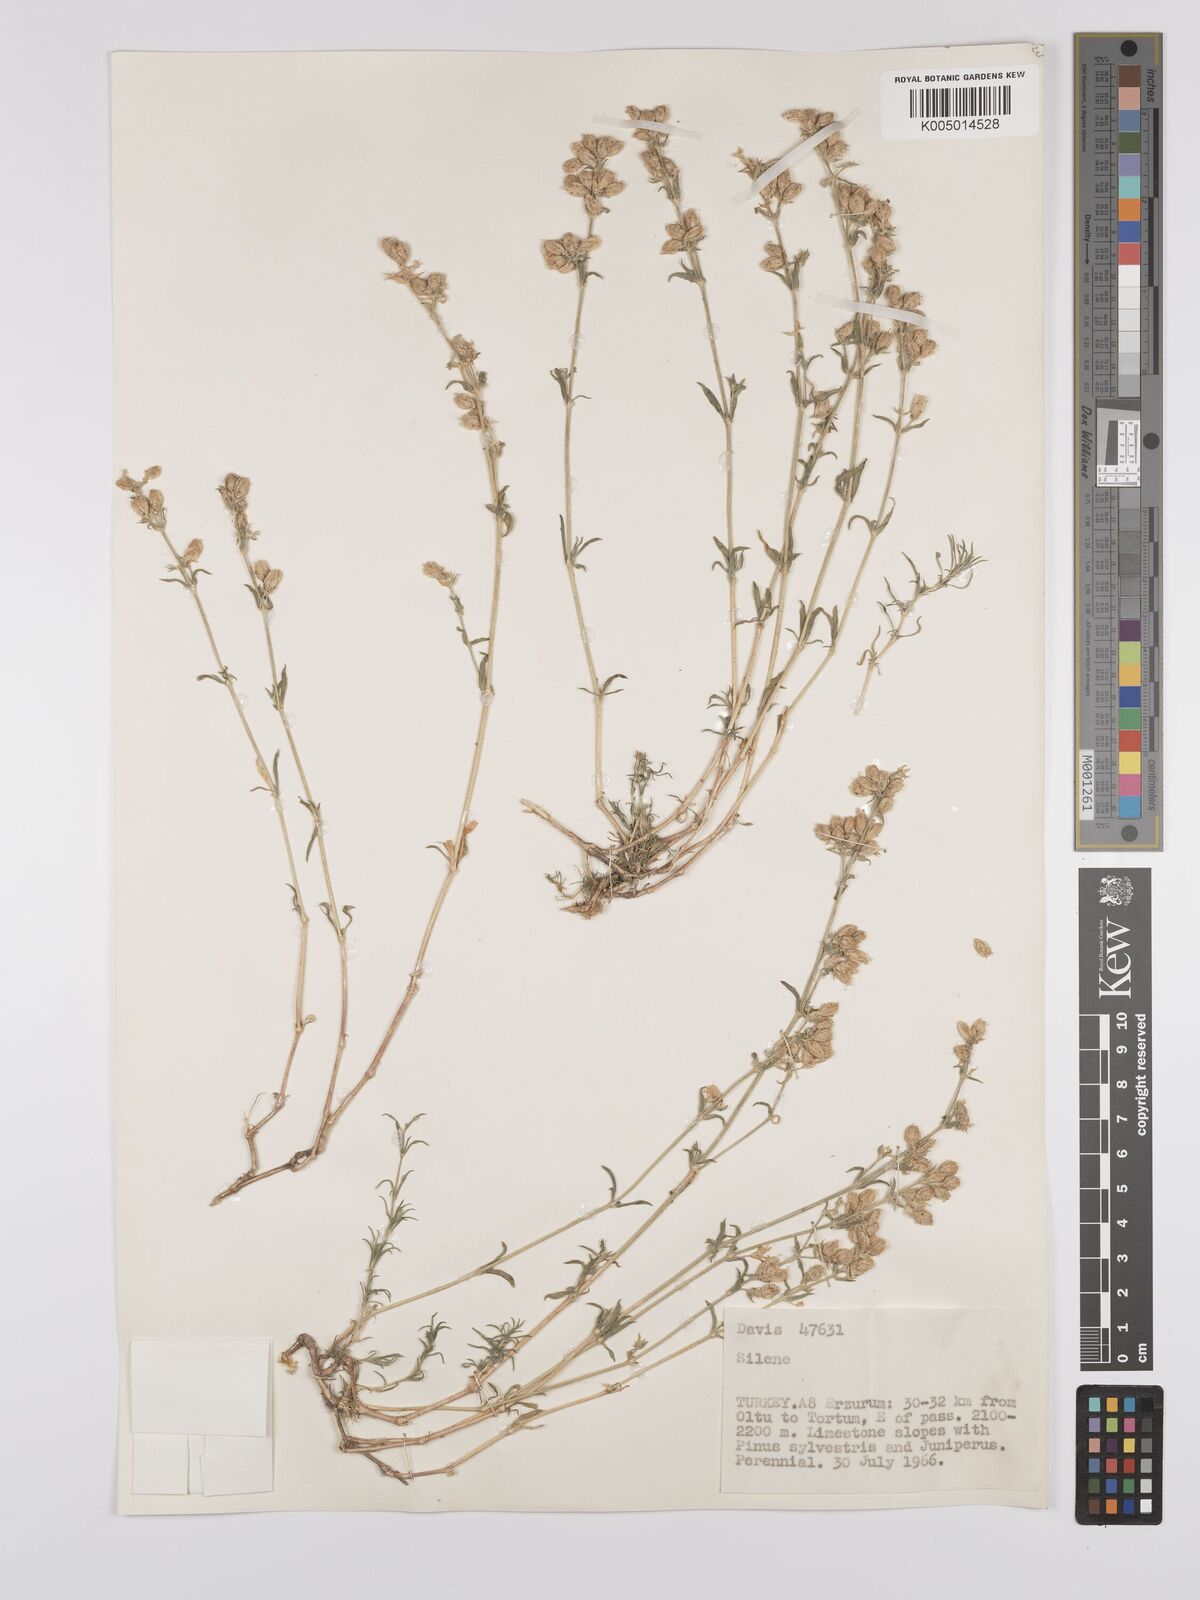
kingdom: Plantae
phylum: Tracheophyta
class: Magnoliopsida
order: Caryophyllales
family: Caryophyllaceae
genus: Silene
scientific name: Silene
